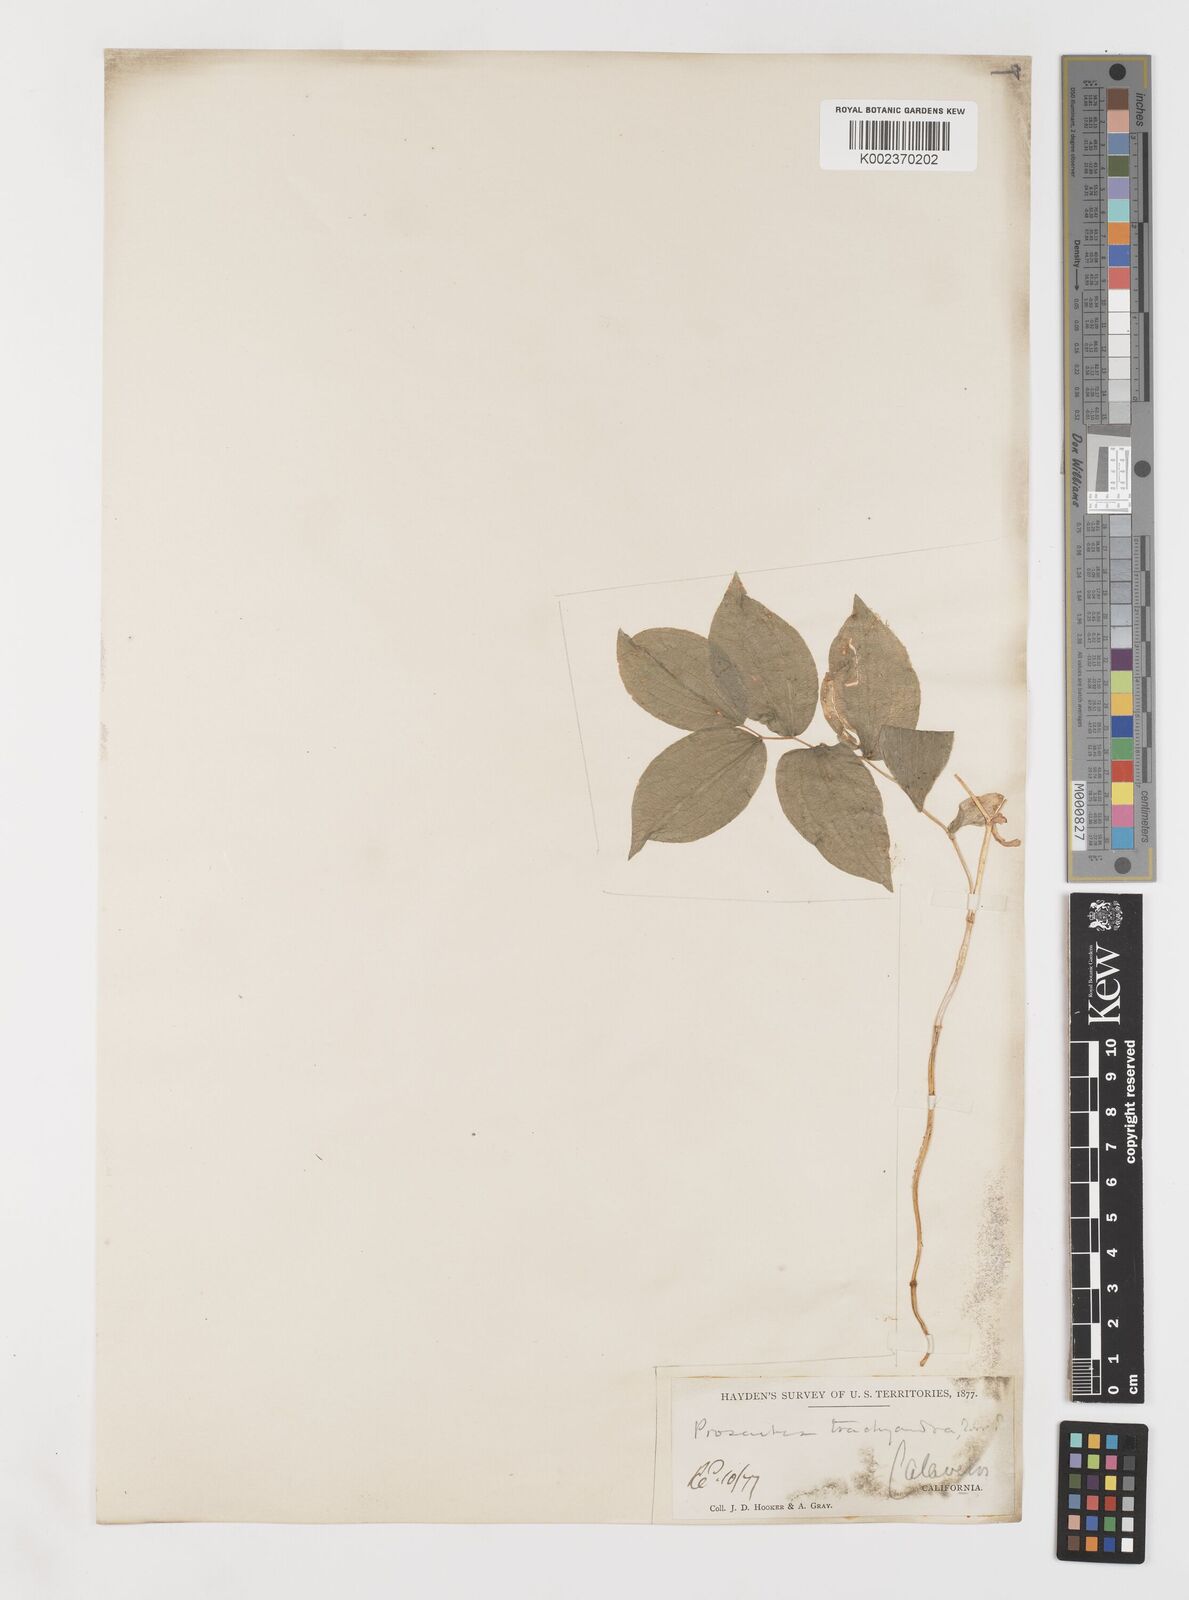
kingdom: Plantae
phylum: Tracheophyta
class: Liliopsida
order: Liliales
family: Liliaceae
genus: Prosartes
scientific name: Prosartes lanuginosa
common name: Hairy mandarin
